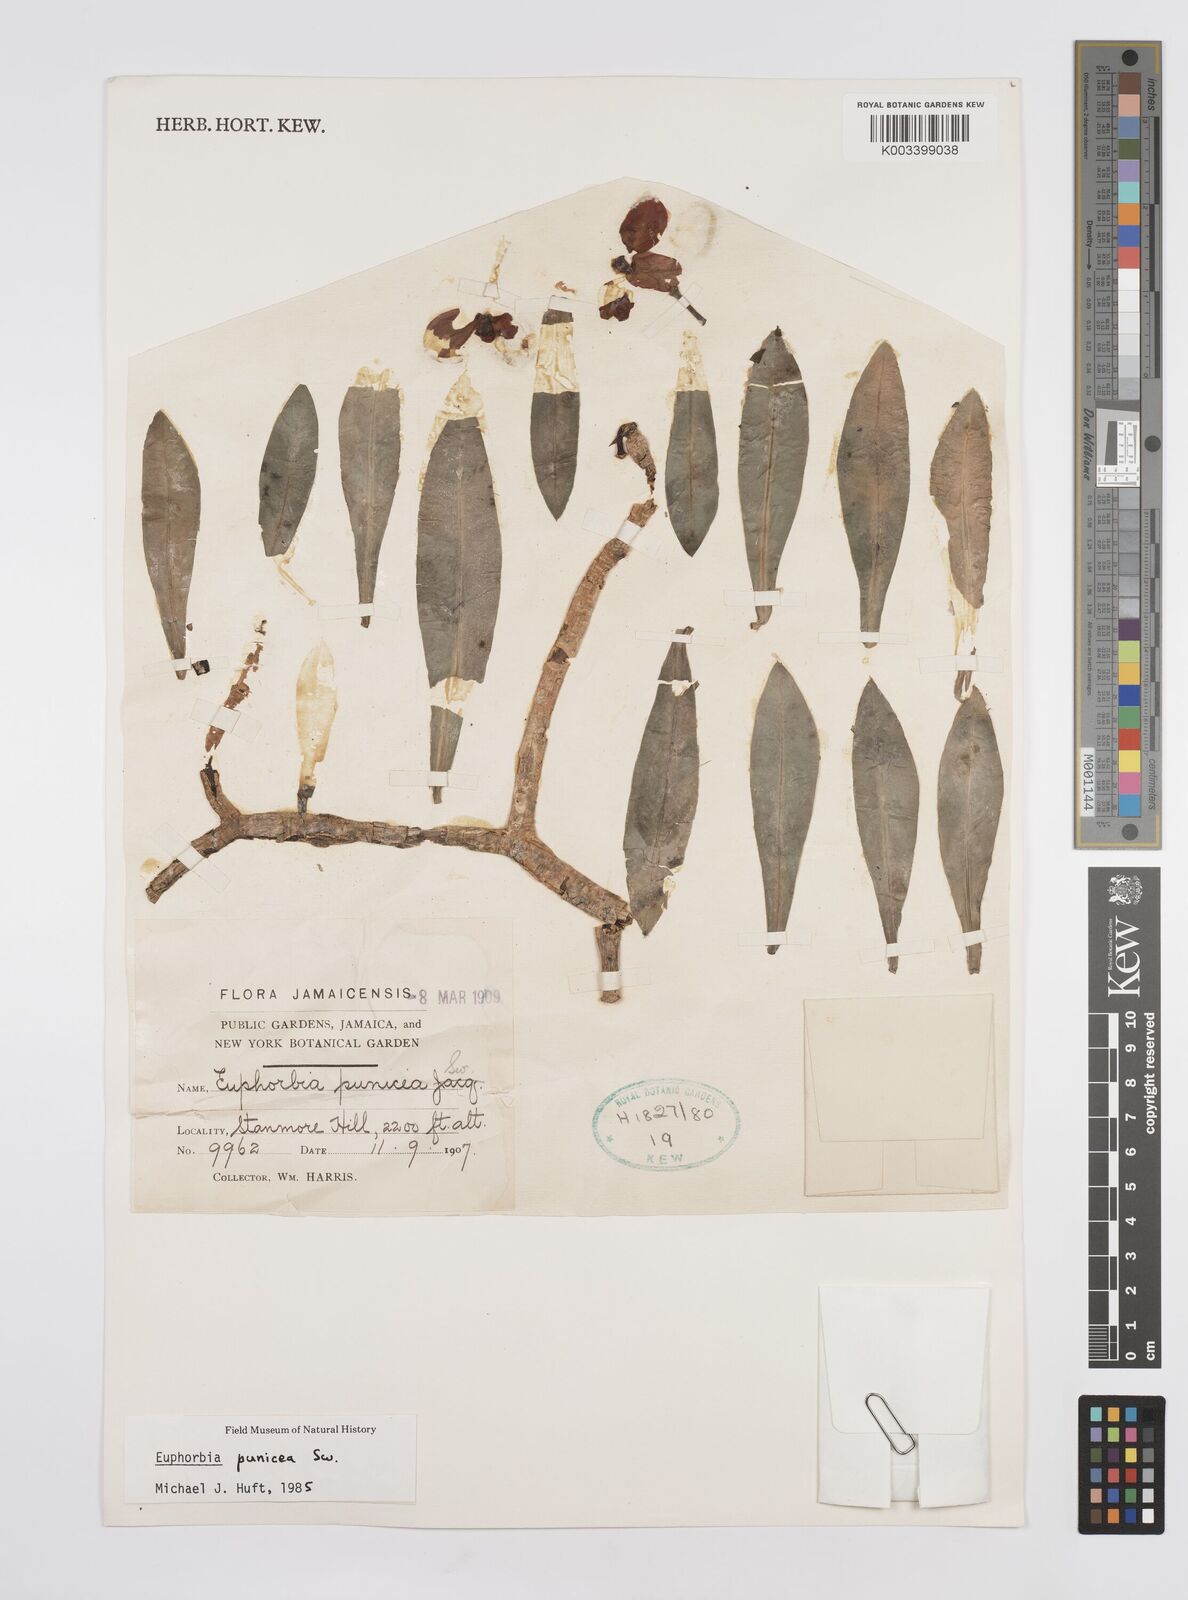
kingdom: Plantae
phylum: Tracheophyta
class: Magnoliopsida
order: Malpighiales
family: Euphorbiaceae
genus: Euphorbia
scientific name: Euphorbia punicea
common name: Vegetable-leather
